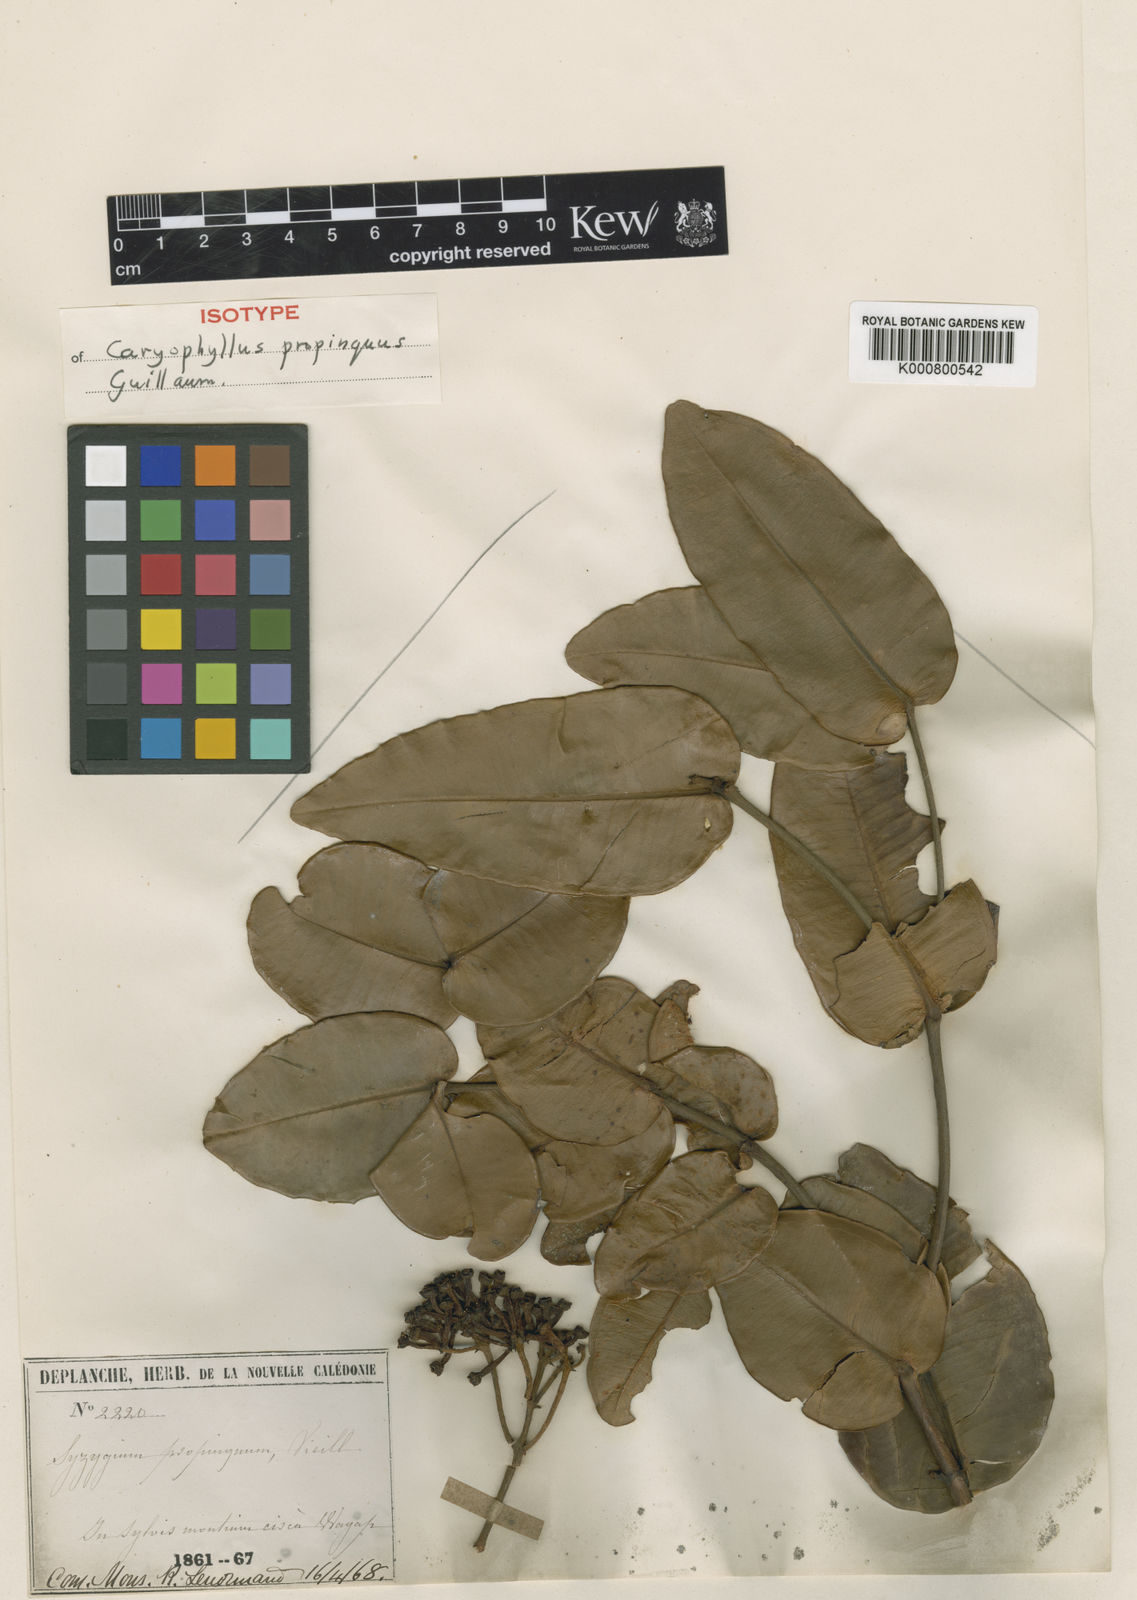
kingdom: Plantae
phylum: Tracheophyta
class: Magnoliopsida
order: Myrtales
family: Myrtaceae
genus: Syzygium
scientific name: Syzygium propinquum
